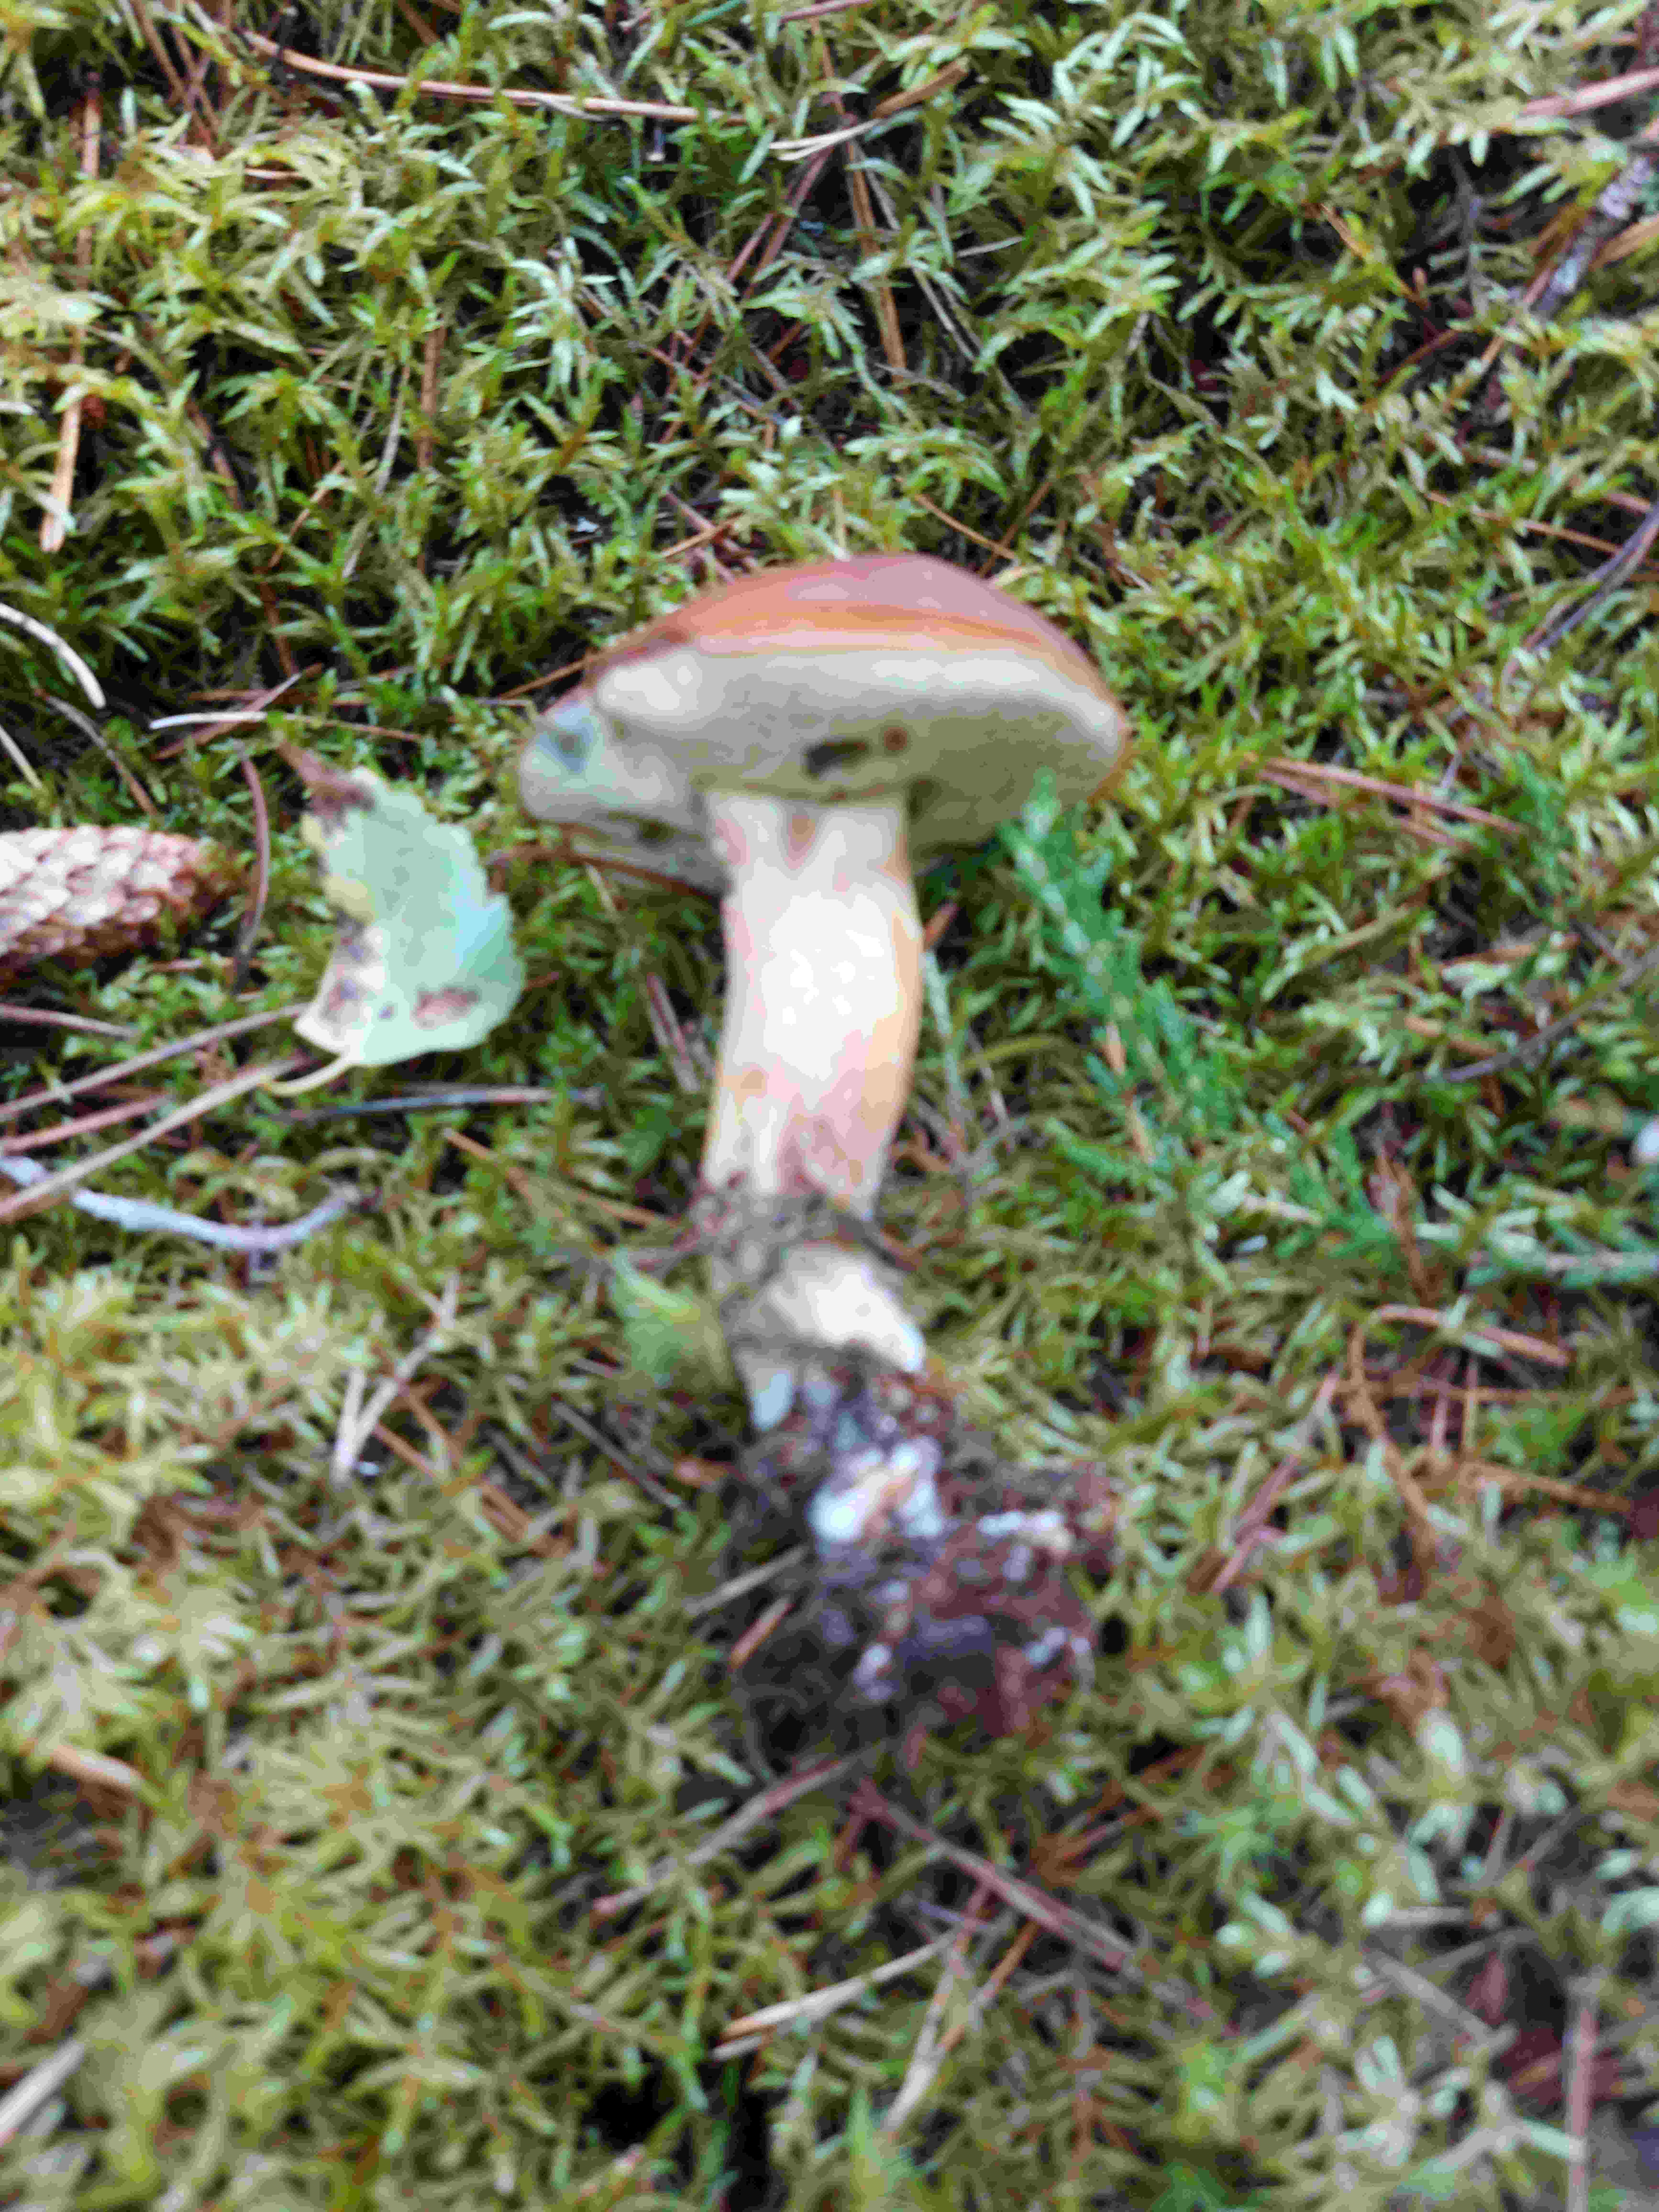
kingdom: Fungi
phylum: Basidiomycota
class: Agaricomycetes
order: Boletales
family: Boletaceae
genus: Imleria
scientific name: Imleria badia
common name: brunstokket rørhat
